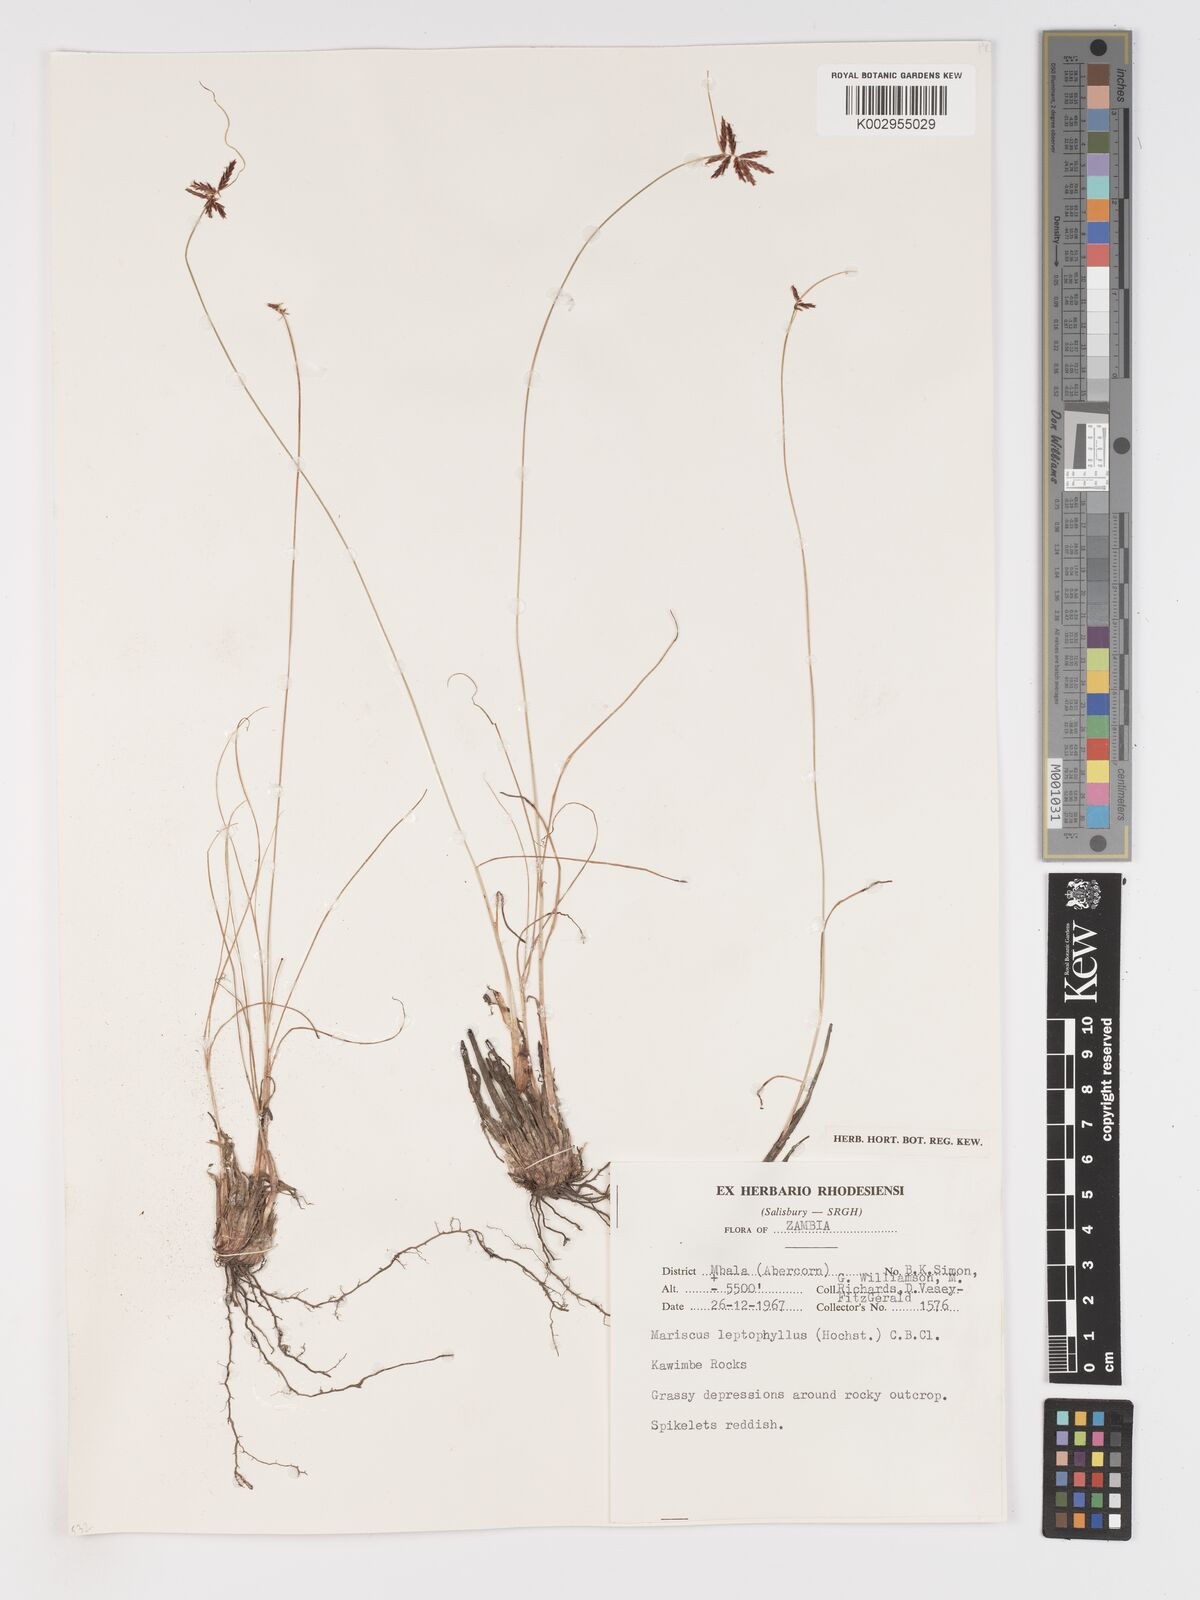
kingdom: Plantae
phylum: Tracheophyta
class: Liliopsida
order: Poales
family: Cyperaceae
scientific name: Cyperaceae
